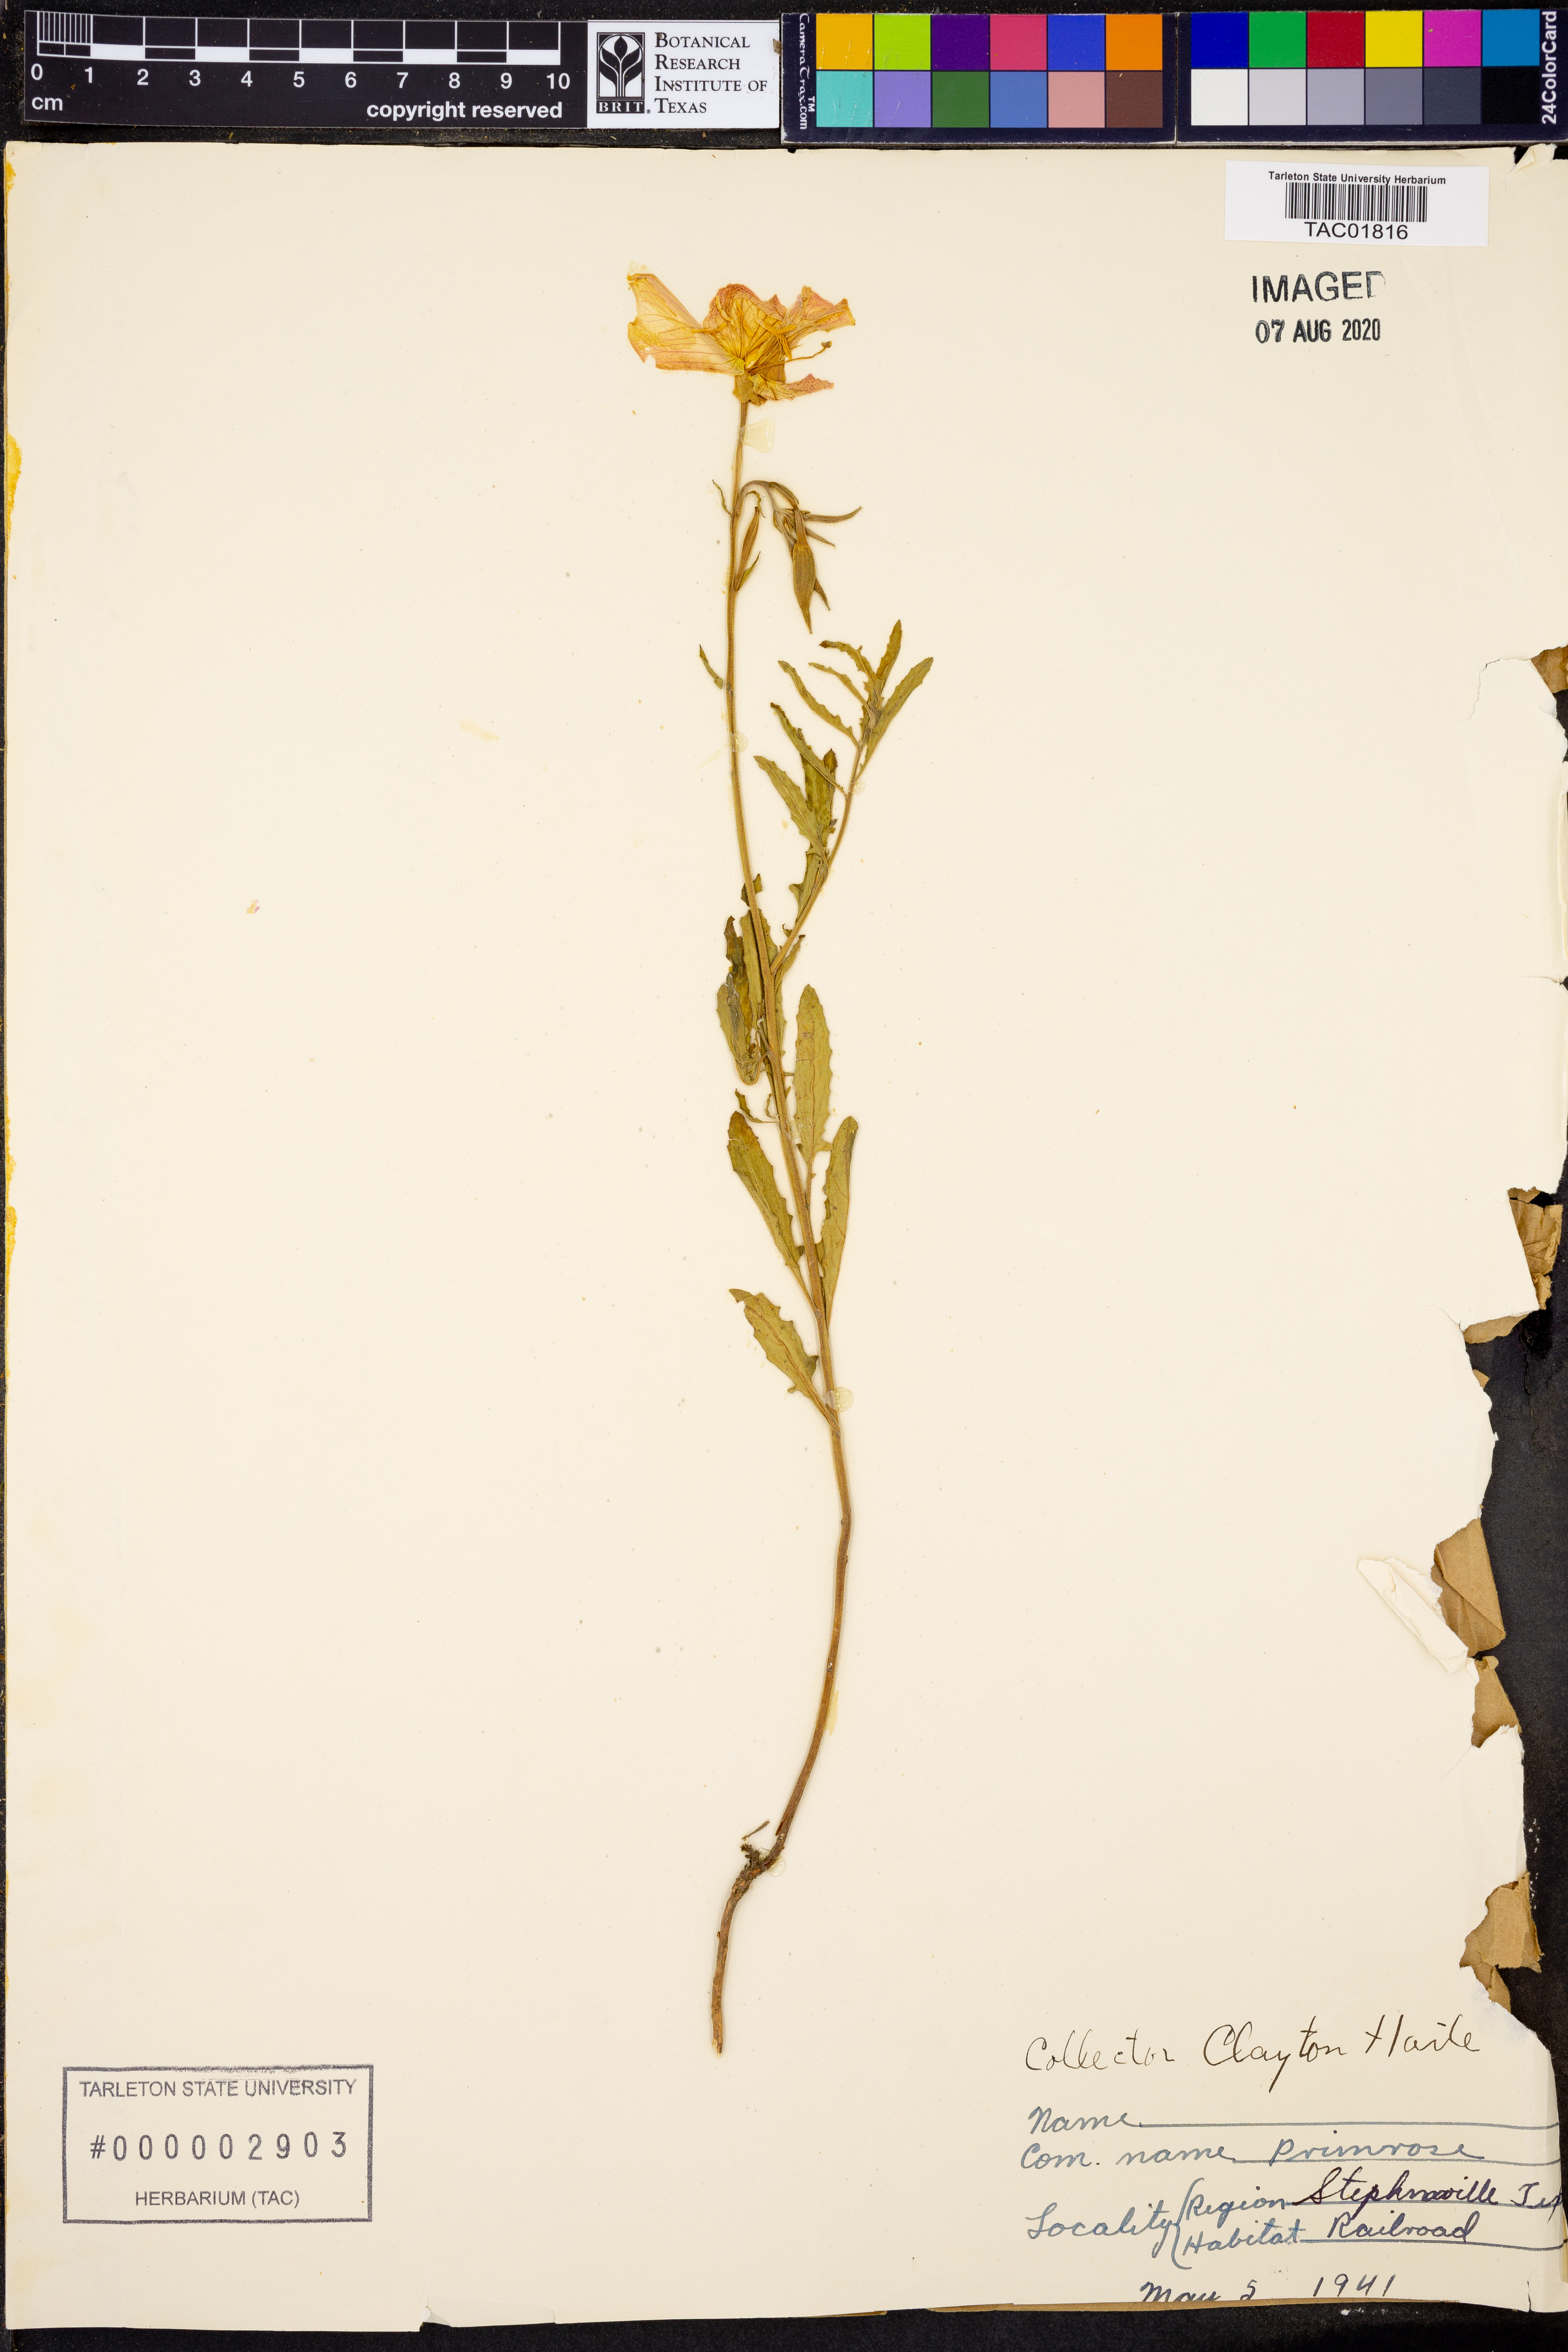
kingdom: Plantae
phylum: Tracheophyta
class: Magnoliopsida
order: Myrtales
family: Onagraceae
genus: Oenothera
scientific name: Oenothera
